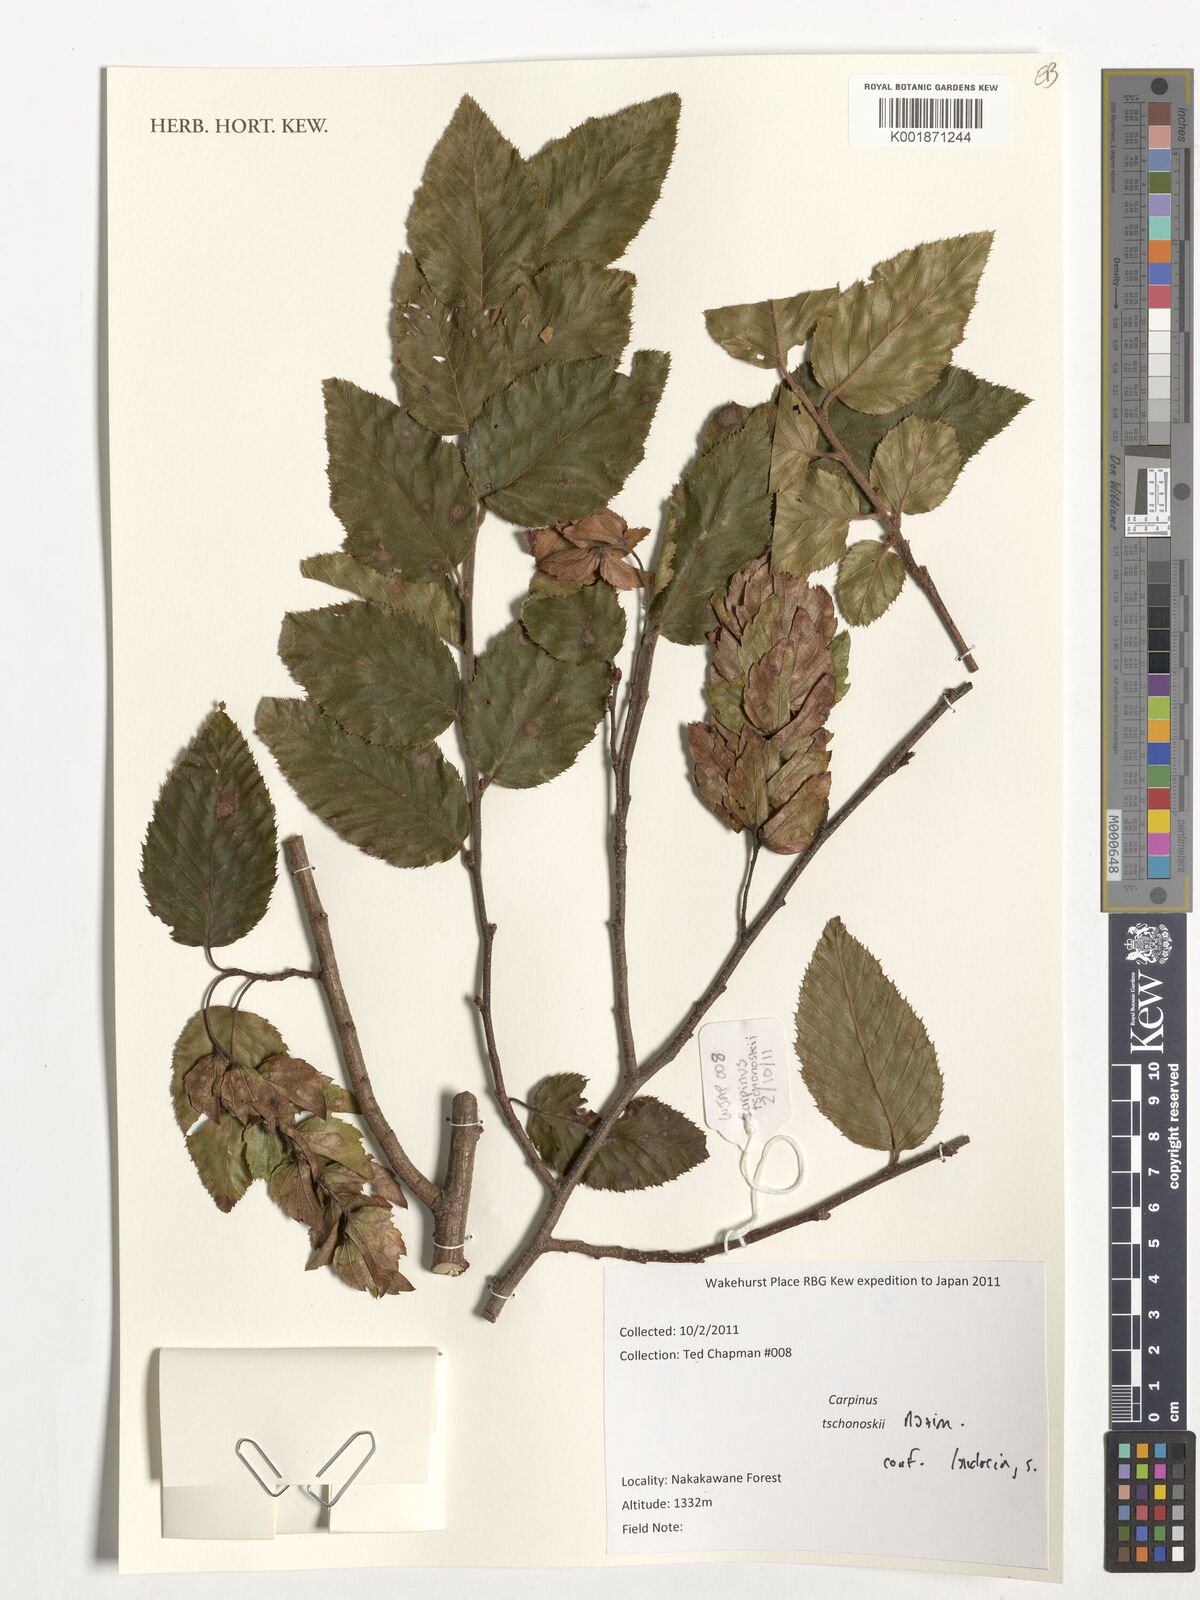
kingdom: Plantae
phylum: Tracheophyta
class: Magnoliopsida
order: Fagales
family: Betulaceae
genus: Carpinus
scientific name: Carpinus tschonoskii
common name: Asian hornbeam
